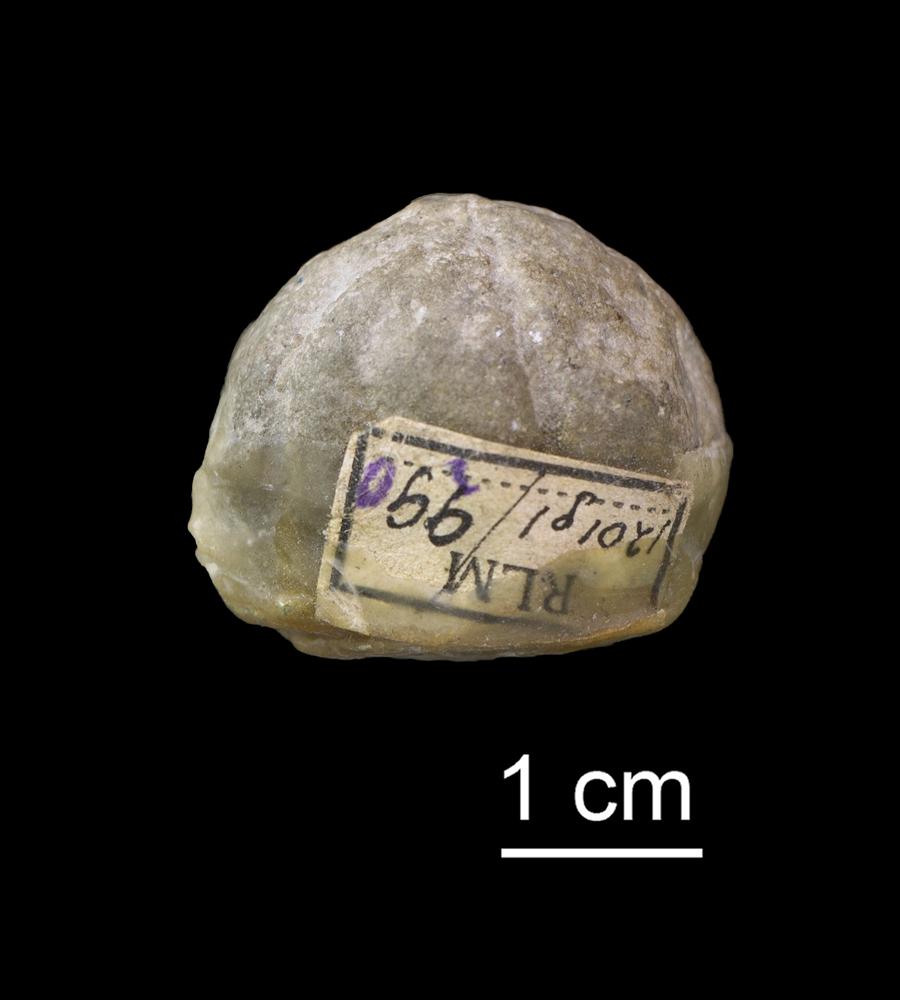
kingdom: Animalia
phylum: Porifera
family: Astylospongiidae
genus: Astylospongia
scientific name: Astylospongia Siphonia praemorsa
